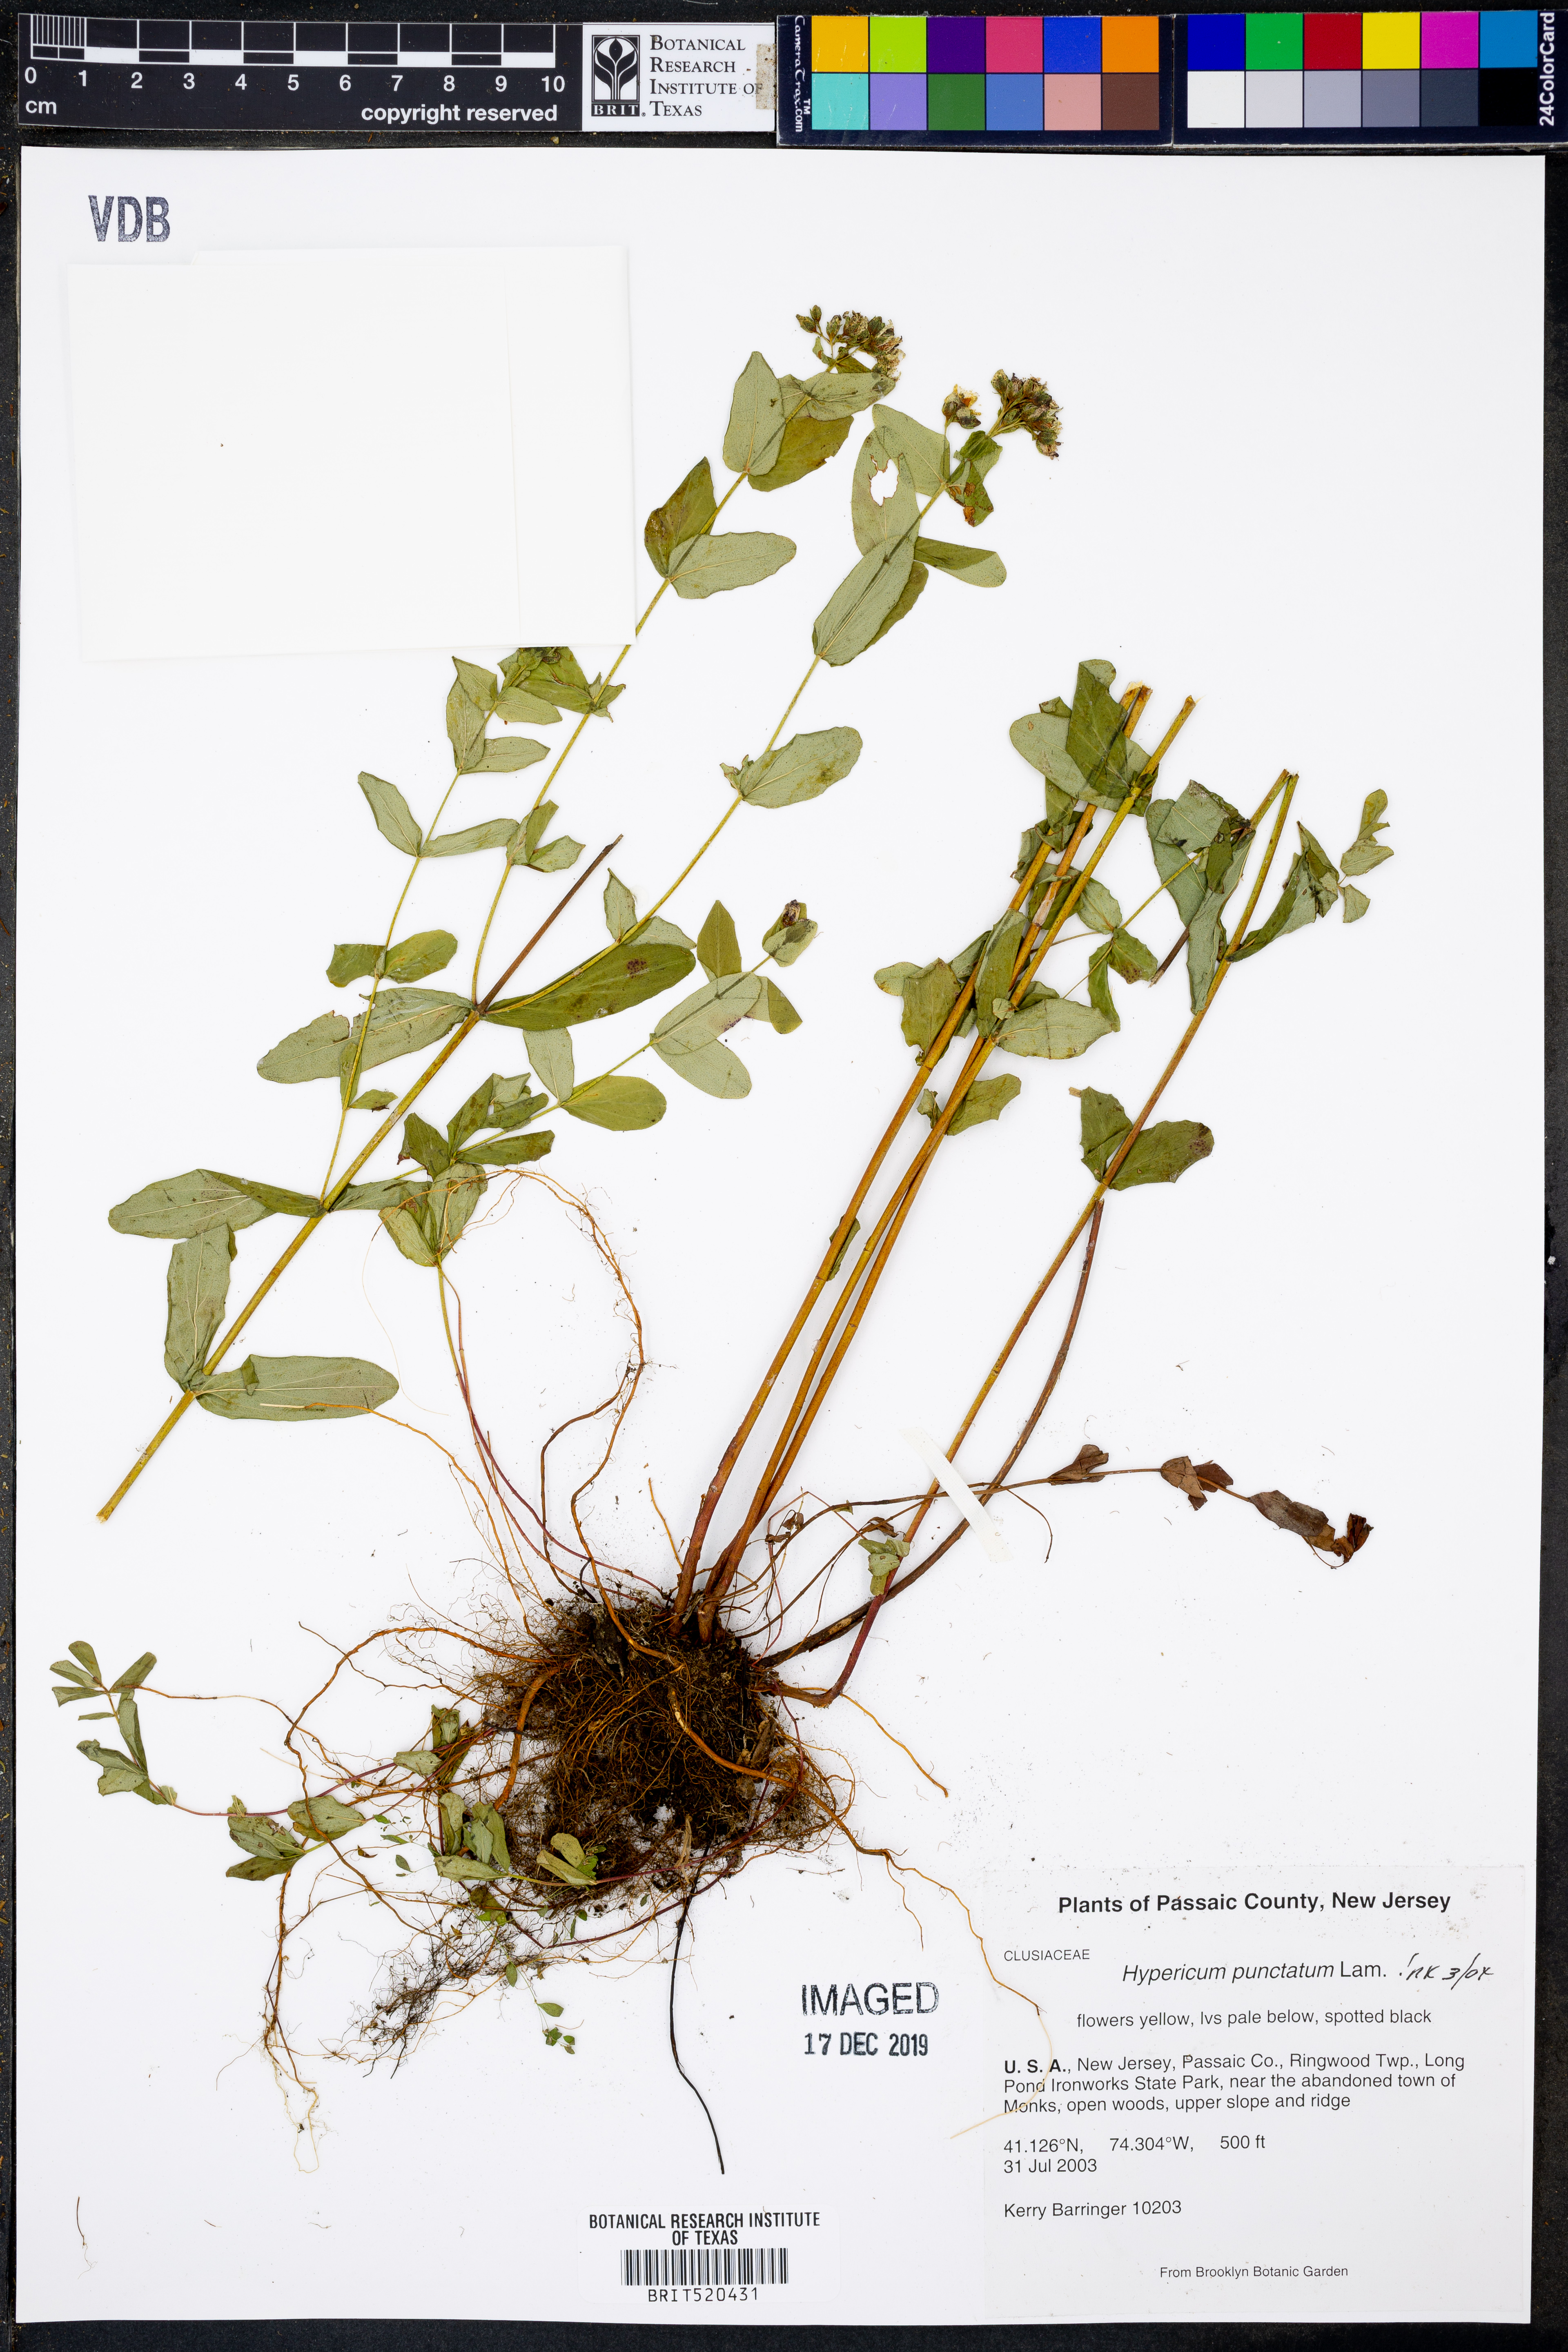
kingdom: Plantae
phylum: Tracheophyta
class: Magnoliopsida
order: Malpighiales
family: Hypericaceae
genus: Hypericum
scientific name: Hypericum punctatum
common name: Spotted st. john's-wort
